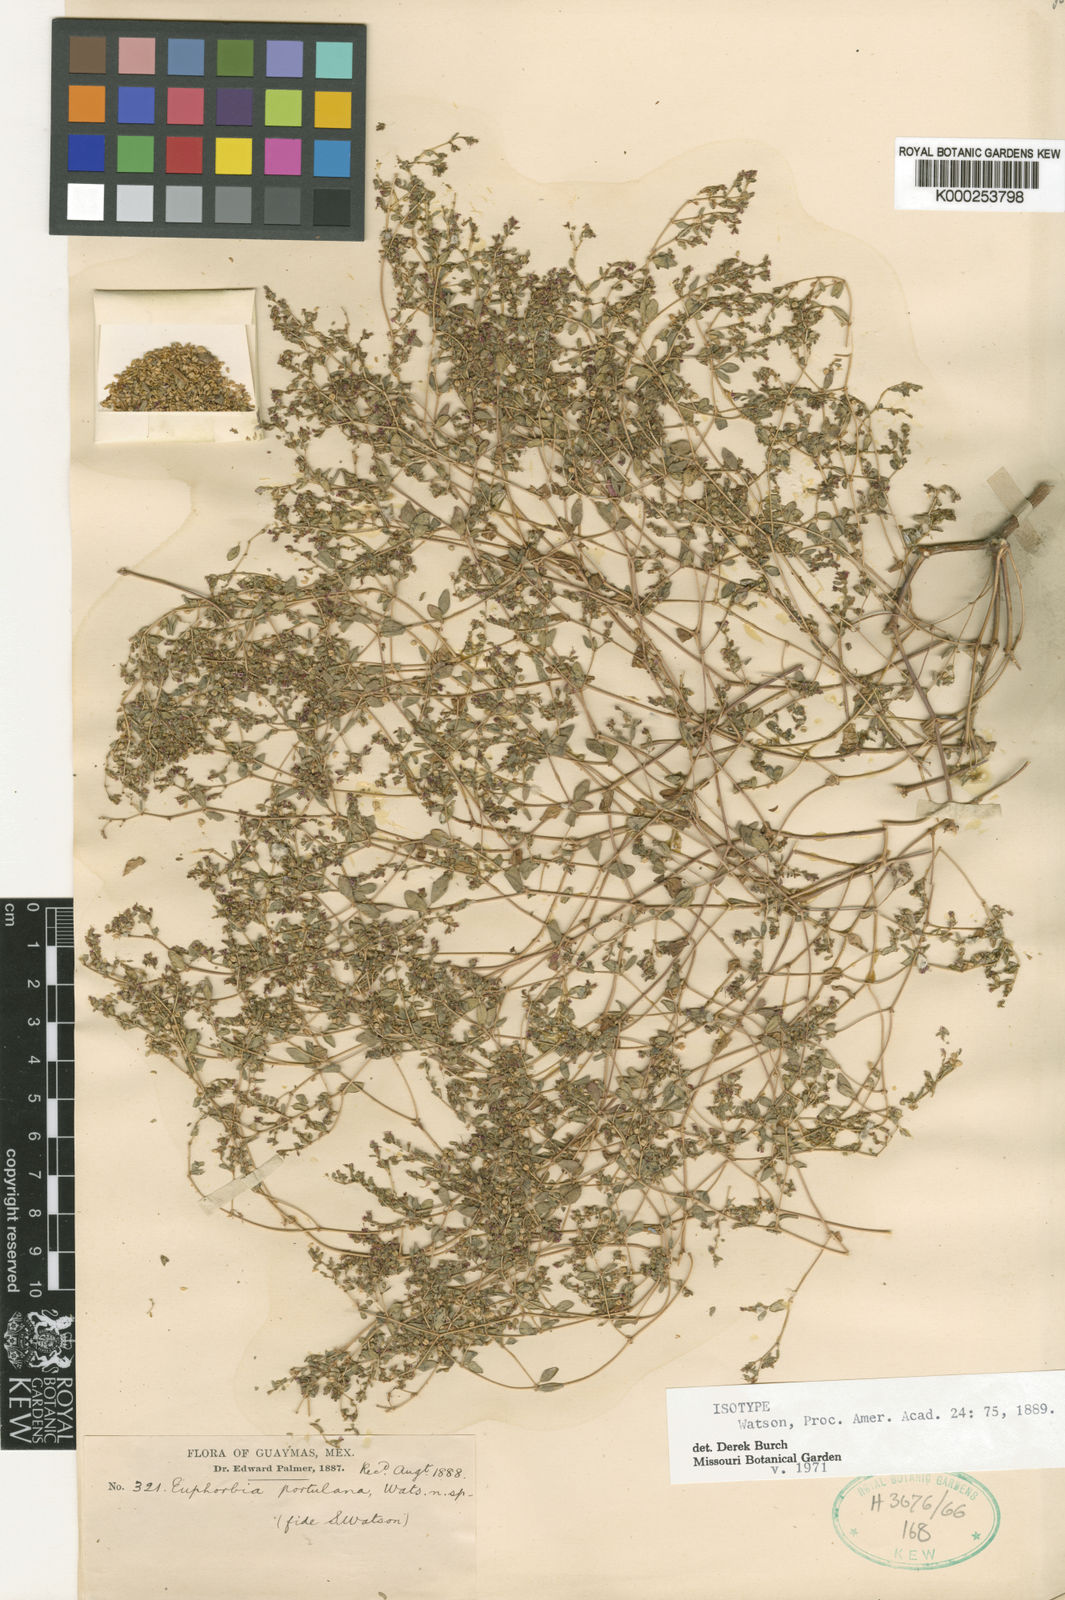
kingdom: Plantae
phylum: Tracheophyta
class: Magnoliopsida
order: Malpighiales
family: Euphorbiaceae
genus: Euphorbia
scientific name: Euphorbia arizonica
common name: Arizona spurge
